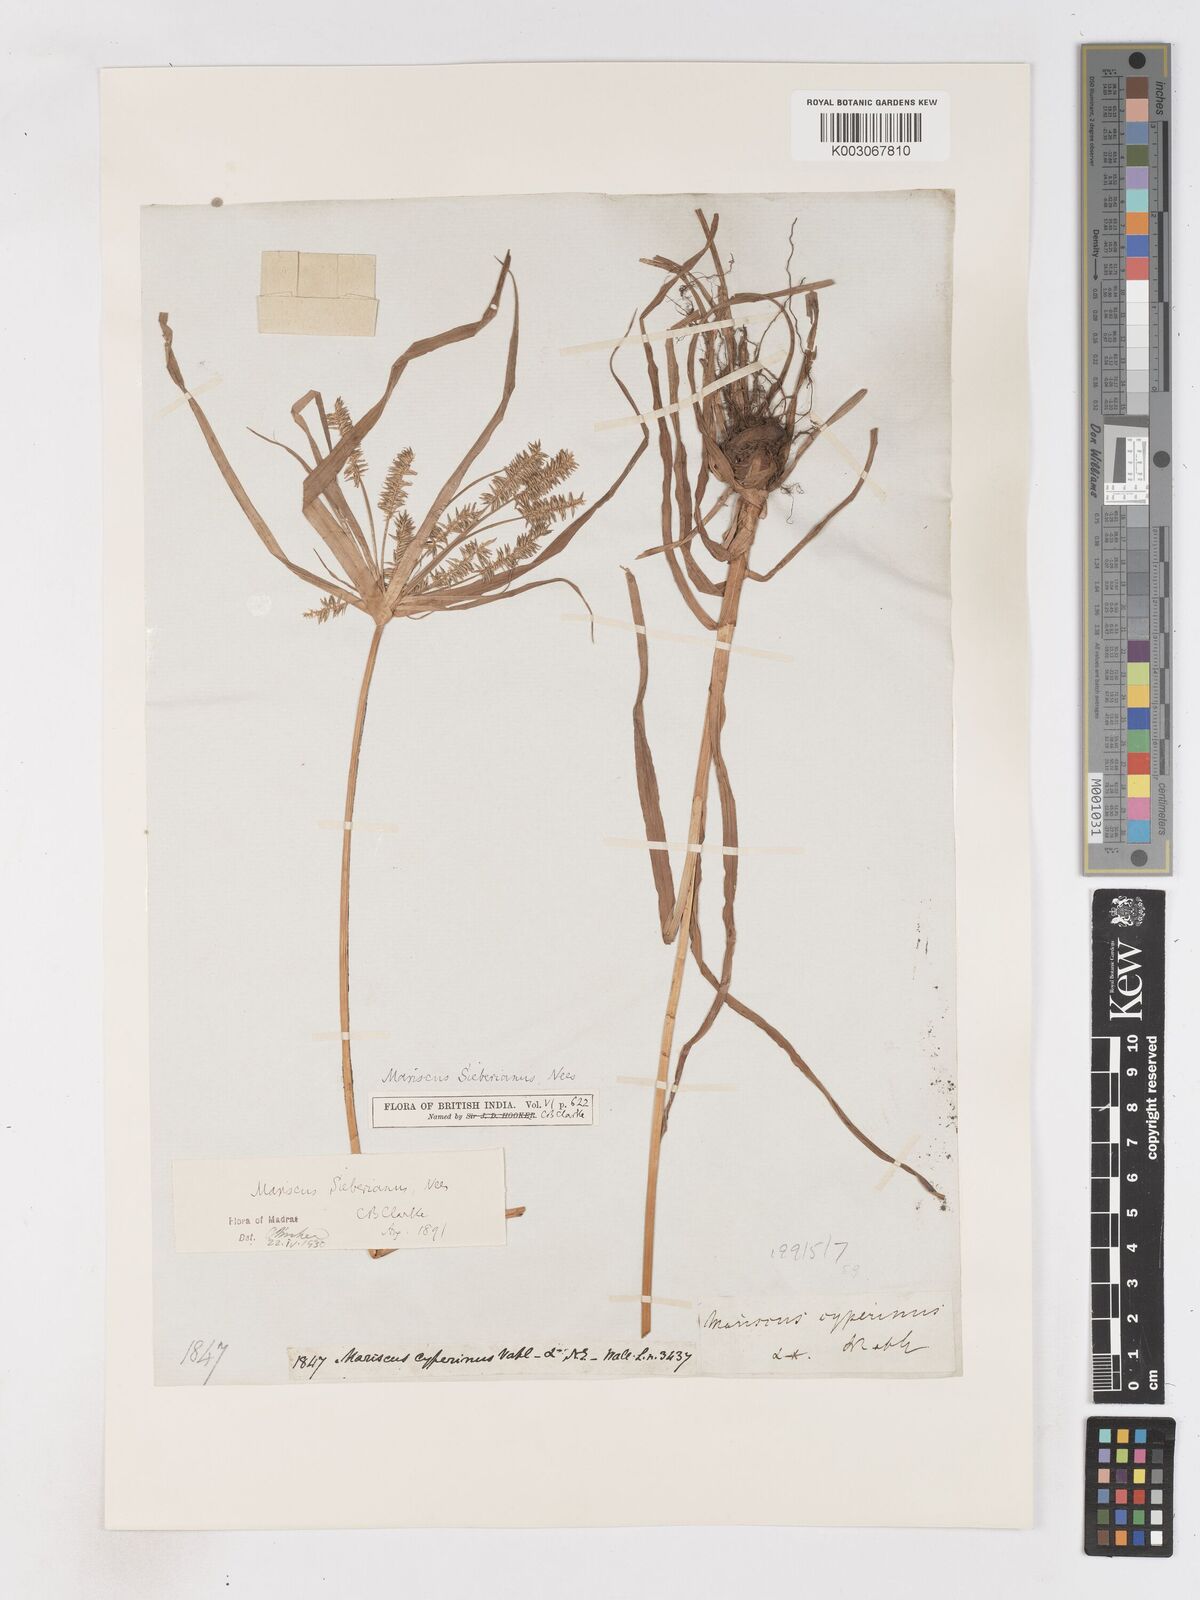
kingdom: Plantae
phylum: Tracheophyta
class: Liliopsida
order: Poales
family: Cyperaceae
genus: Cyperus
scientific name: Cyperus cyperoides
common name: Pacific island flat sedge
